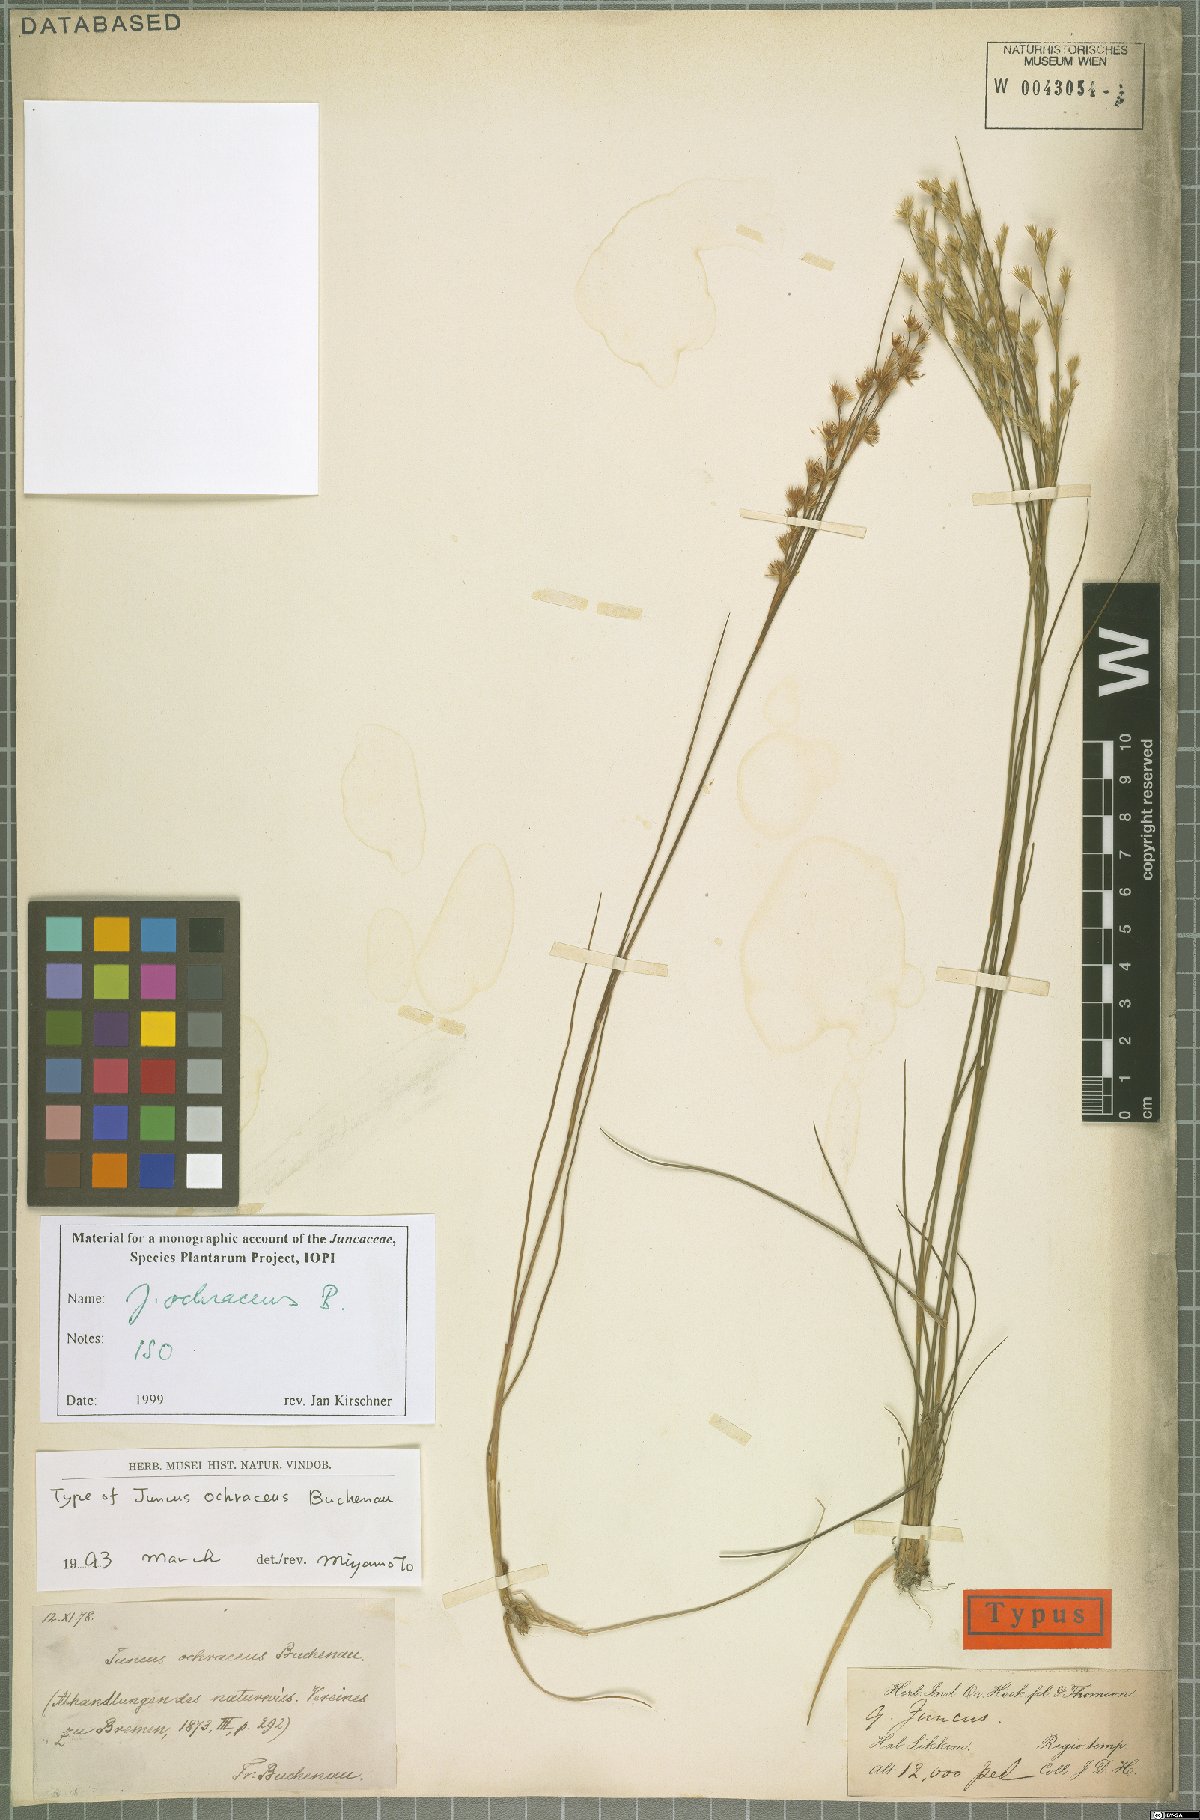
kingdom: Plantae
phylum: Tracheophyta
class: Liliopsida
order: Poales
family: Juncaceae
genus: Juncus
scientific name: Juncus ochraceus
